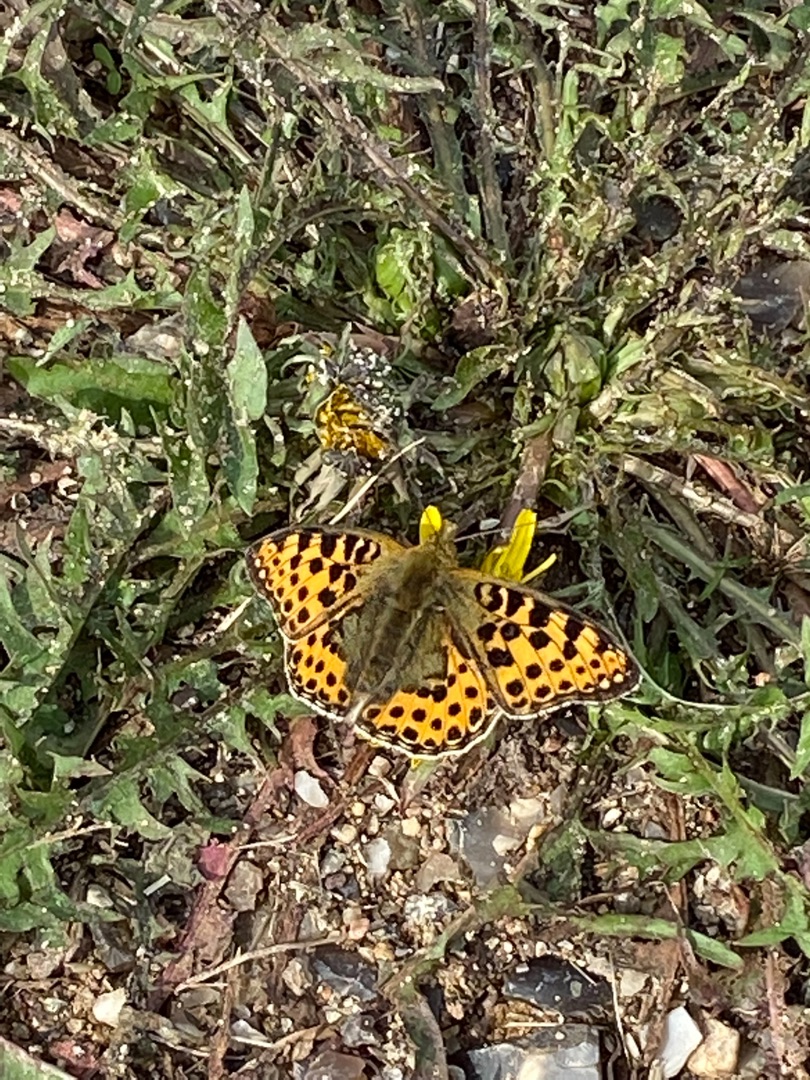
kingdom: Animalia
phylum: Arthropoda
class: Insecta
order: Lepidoptera
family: Nymphalidae
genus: Issoria
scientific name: Issoria lathonia
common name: Storplettet perlemorsommerfugl
